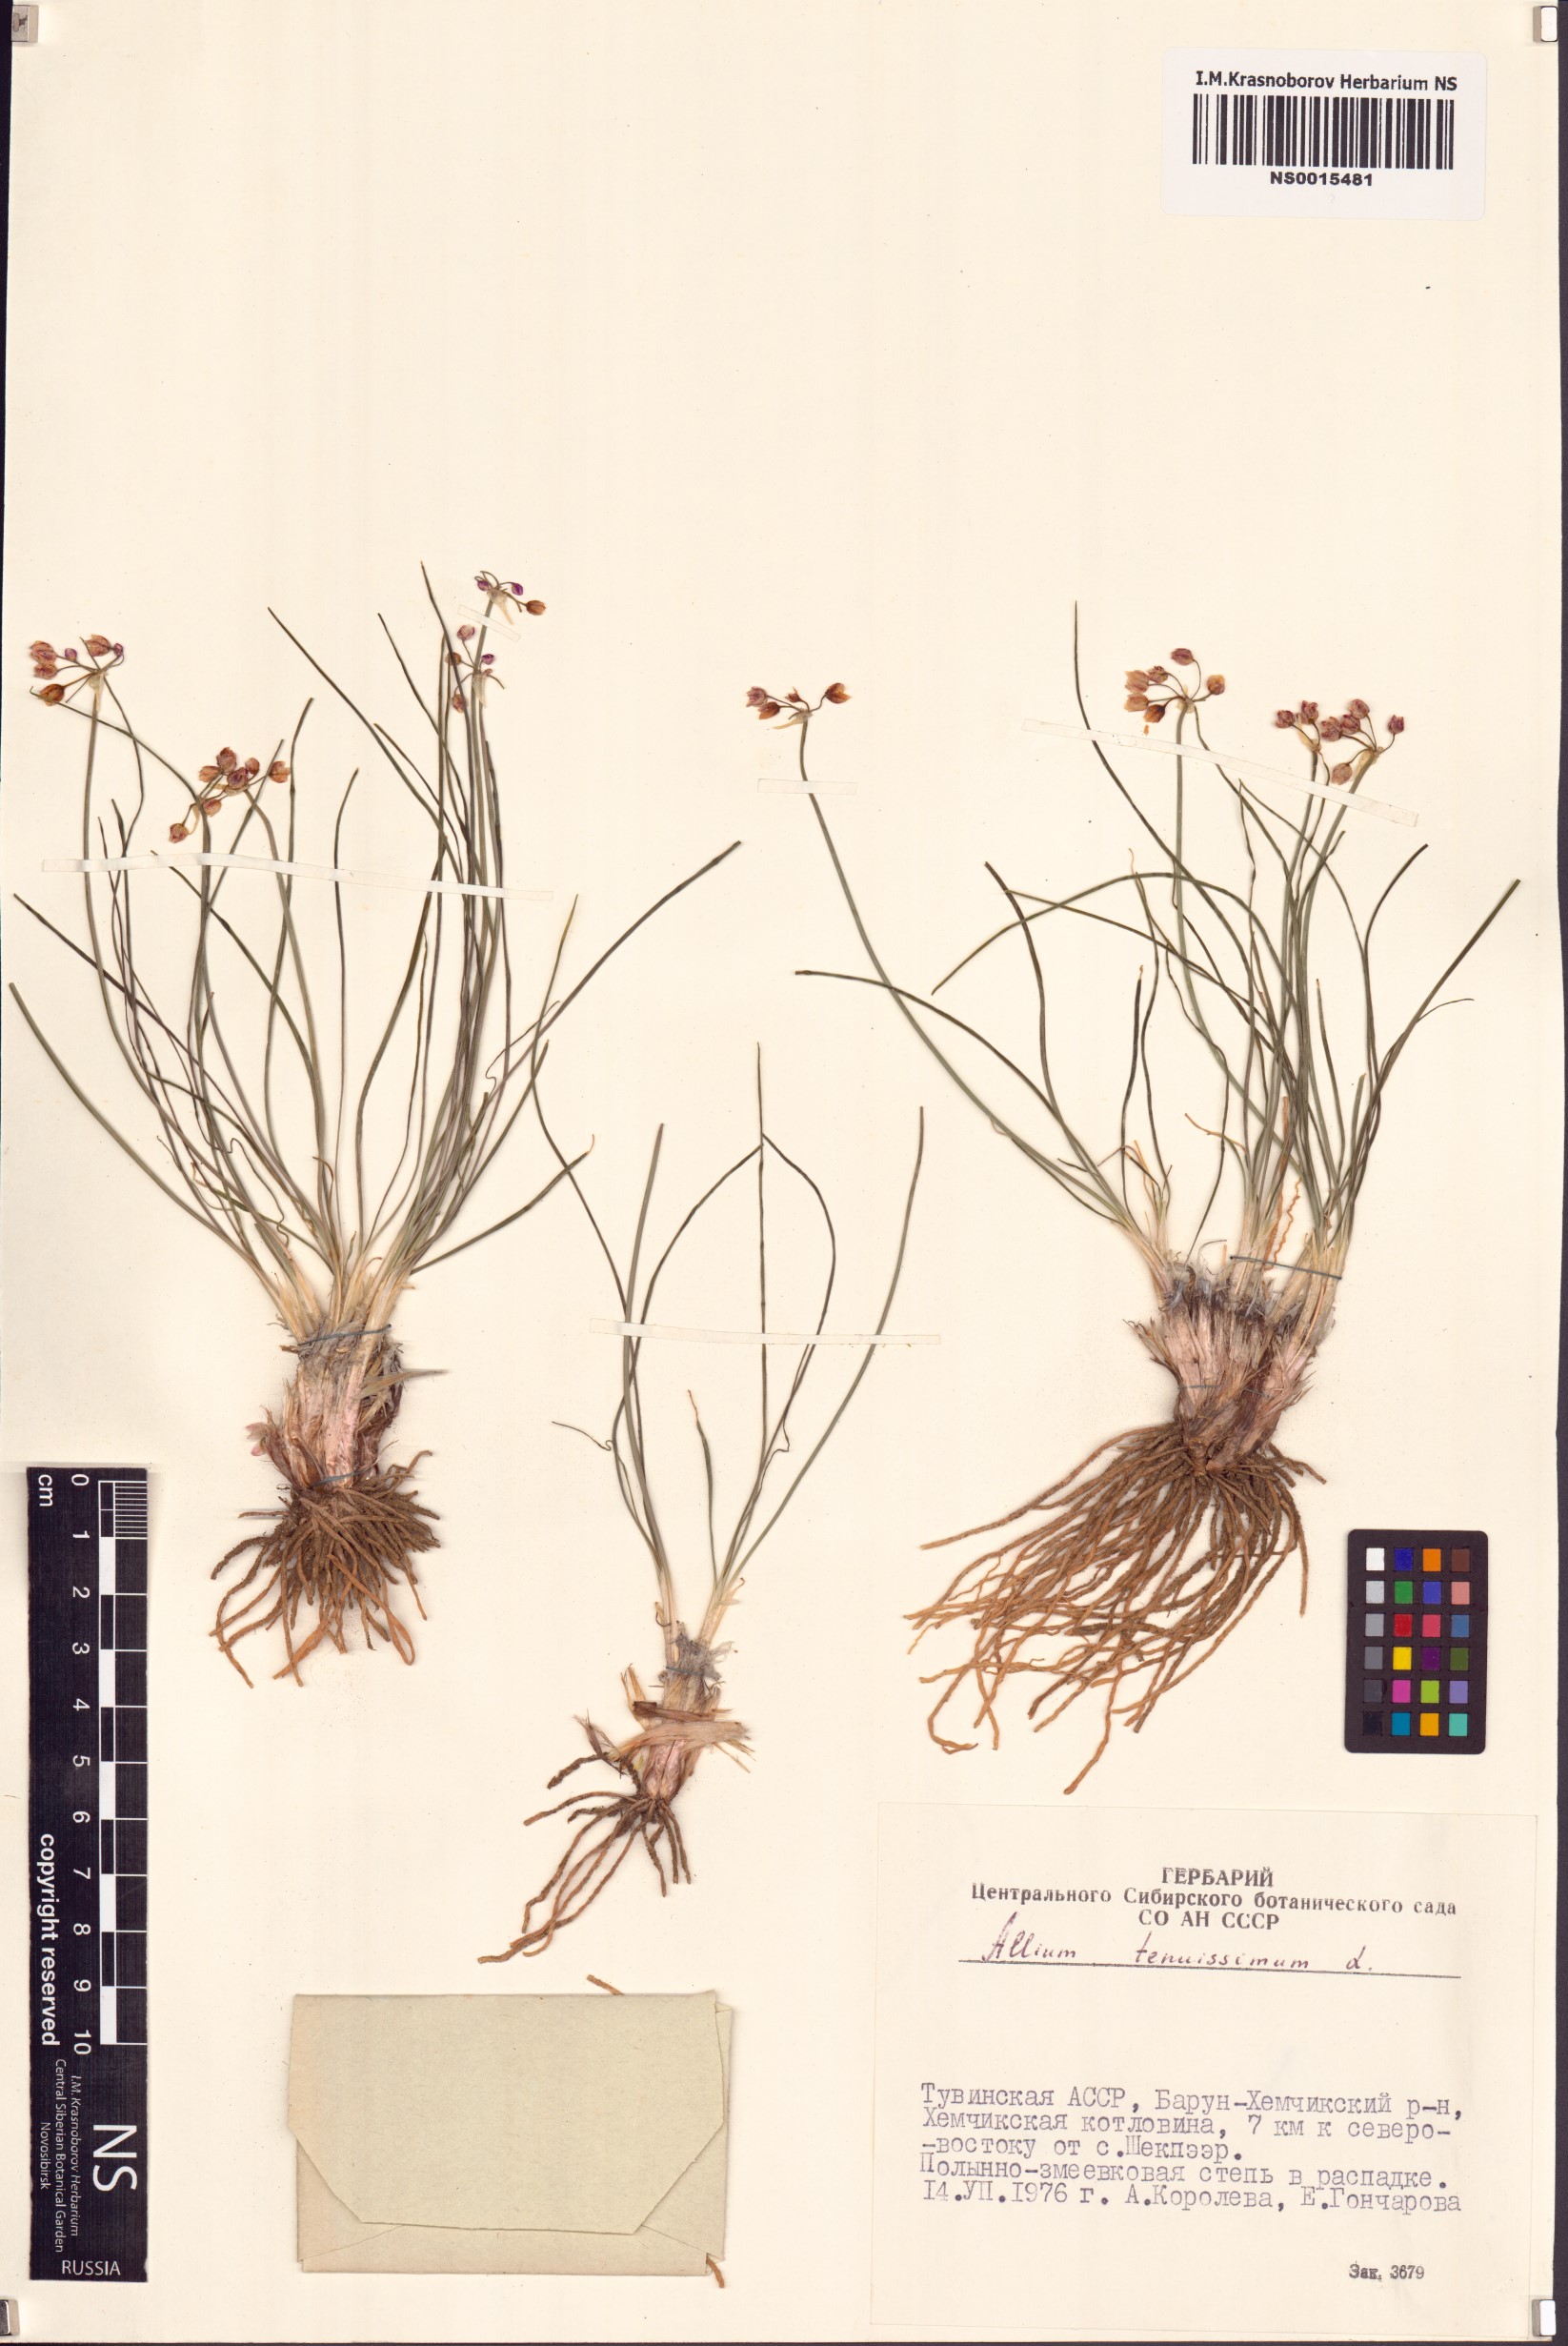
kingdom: Plantae
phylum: Tracheophyta
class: Liliopsida
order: Asparagales
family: Amaryllidaceae
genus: Allium
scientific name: Allium tenuissimum
